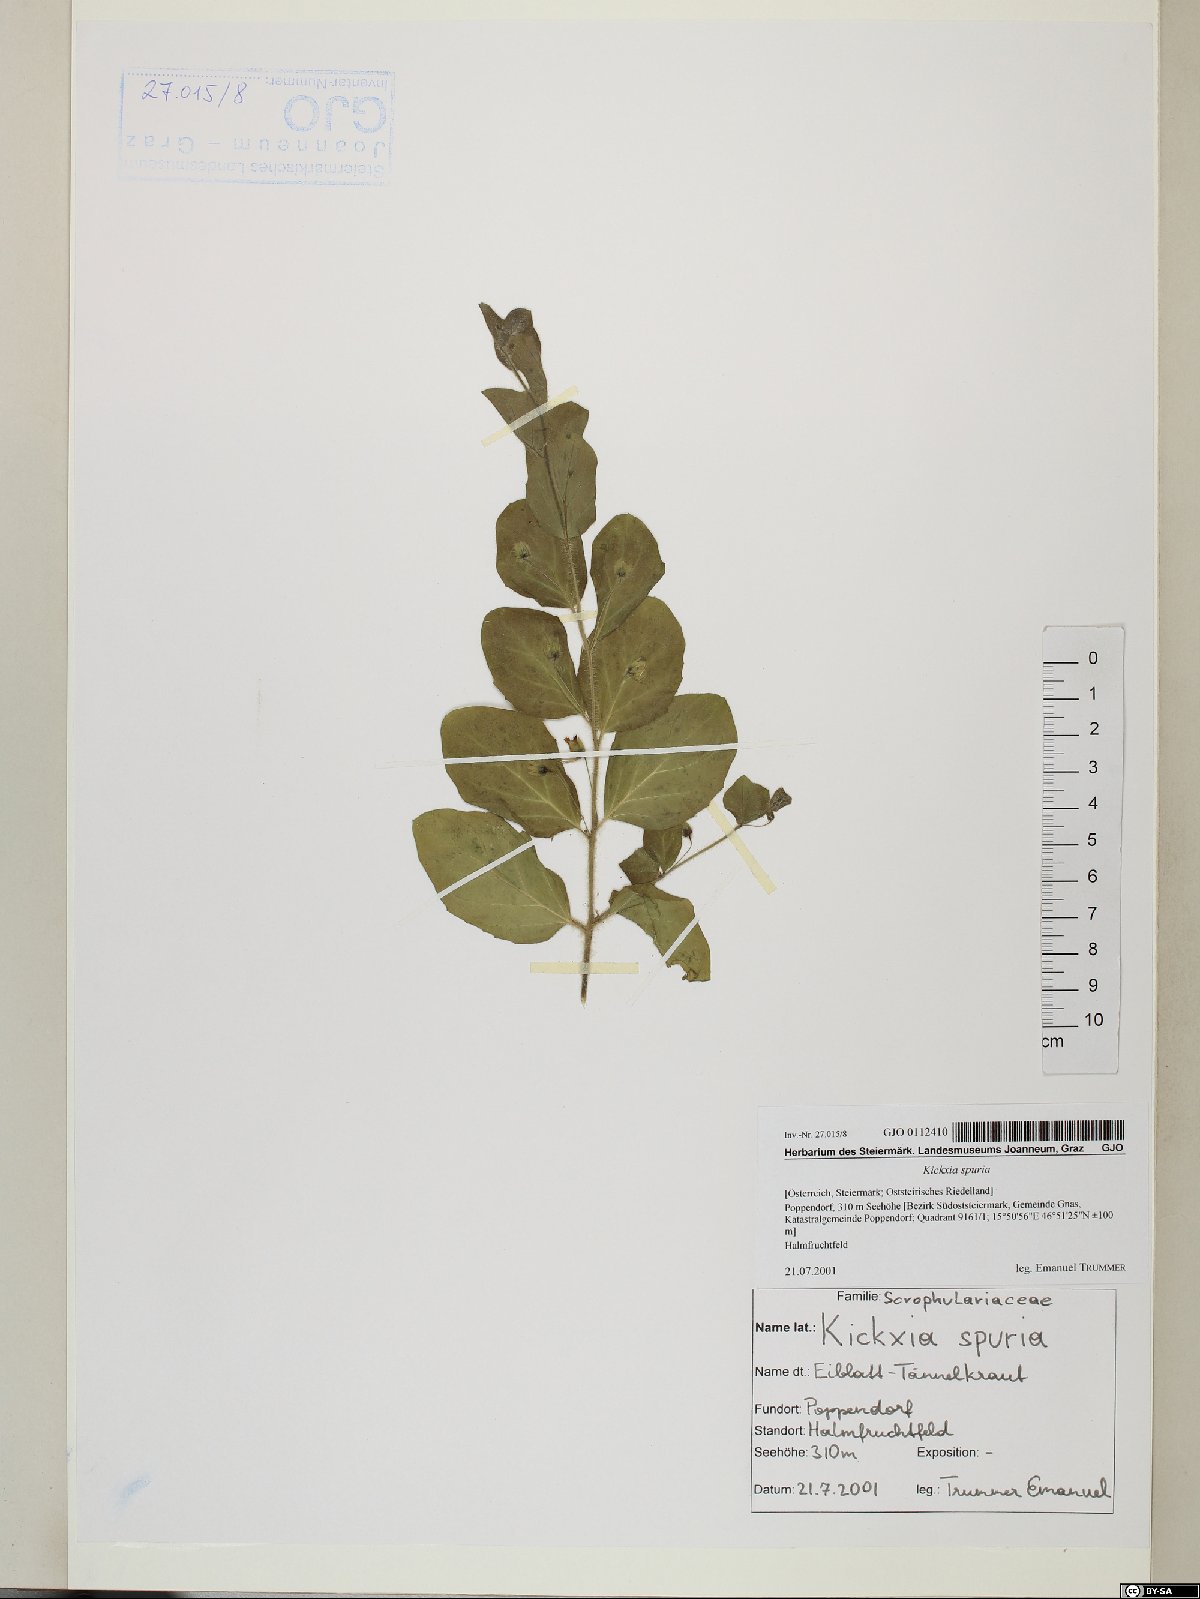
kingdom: Plantae
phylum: Tracheophyta
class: Magnoliopsida
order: Lamiales
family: Plantaginaceae
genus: Kickxia
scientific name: Kickxia spuria
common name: Round-leaved fluellen
